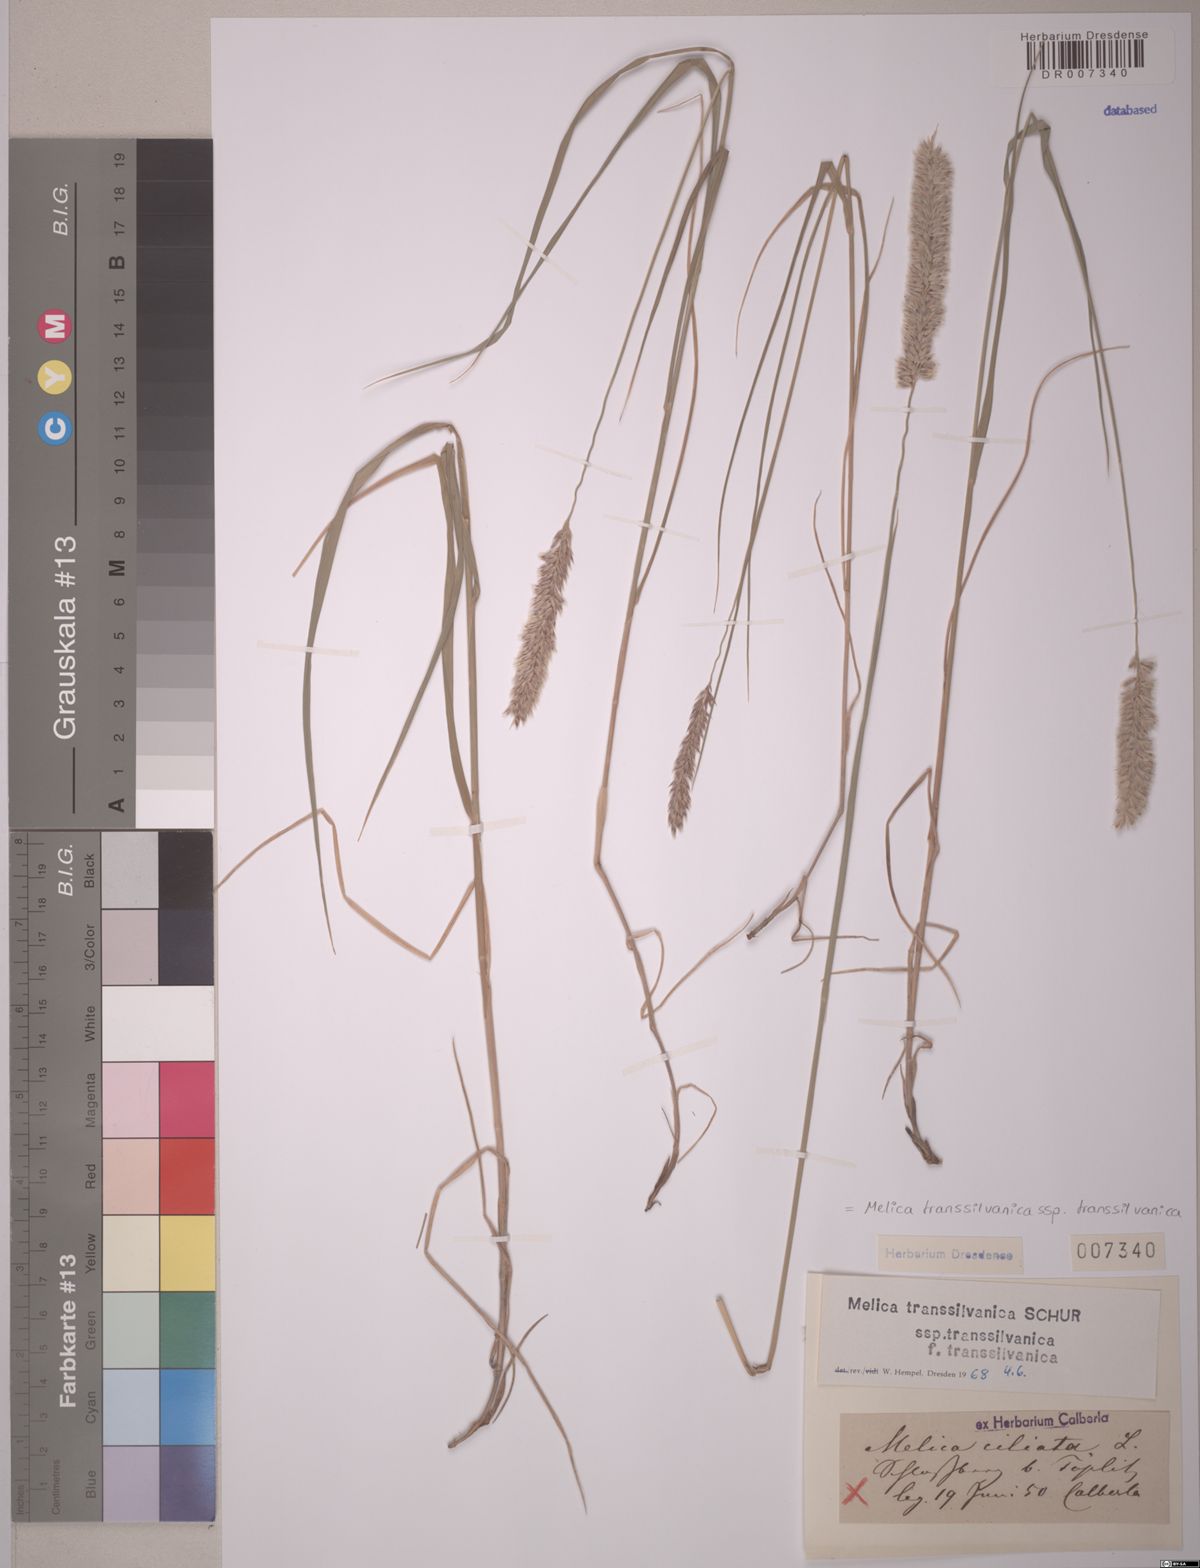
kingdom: Plantae
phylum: Tracheophyta
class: Liliopsida
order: Poales
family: Poaceae
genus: Melica
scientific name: Melica transsilvanica
